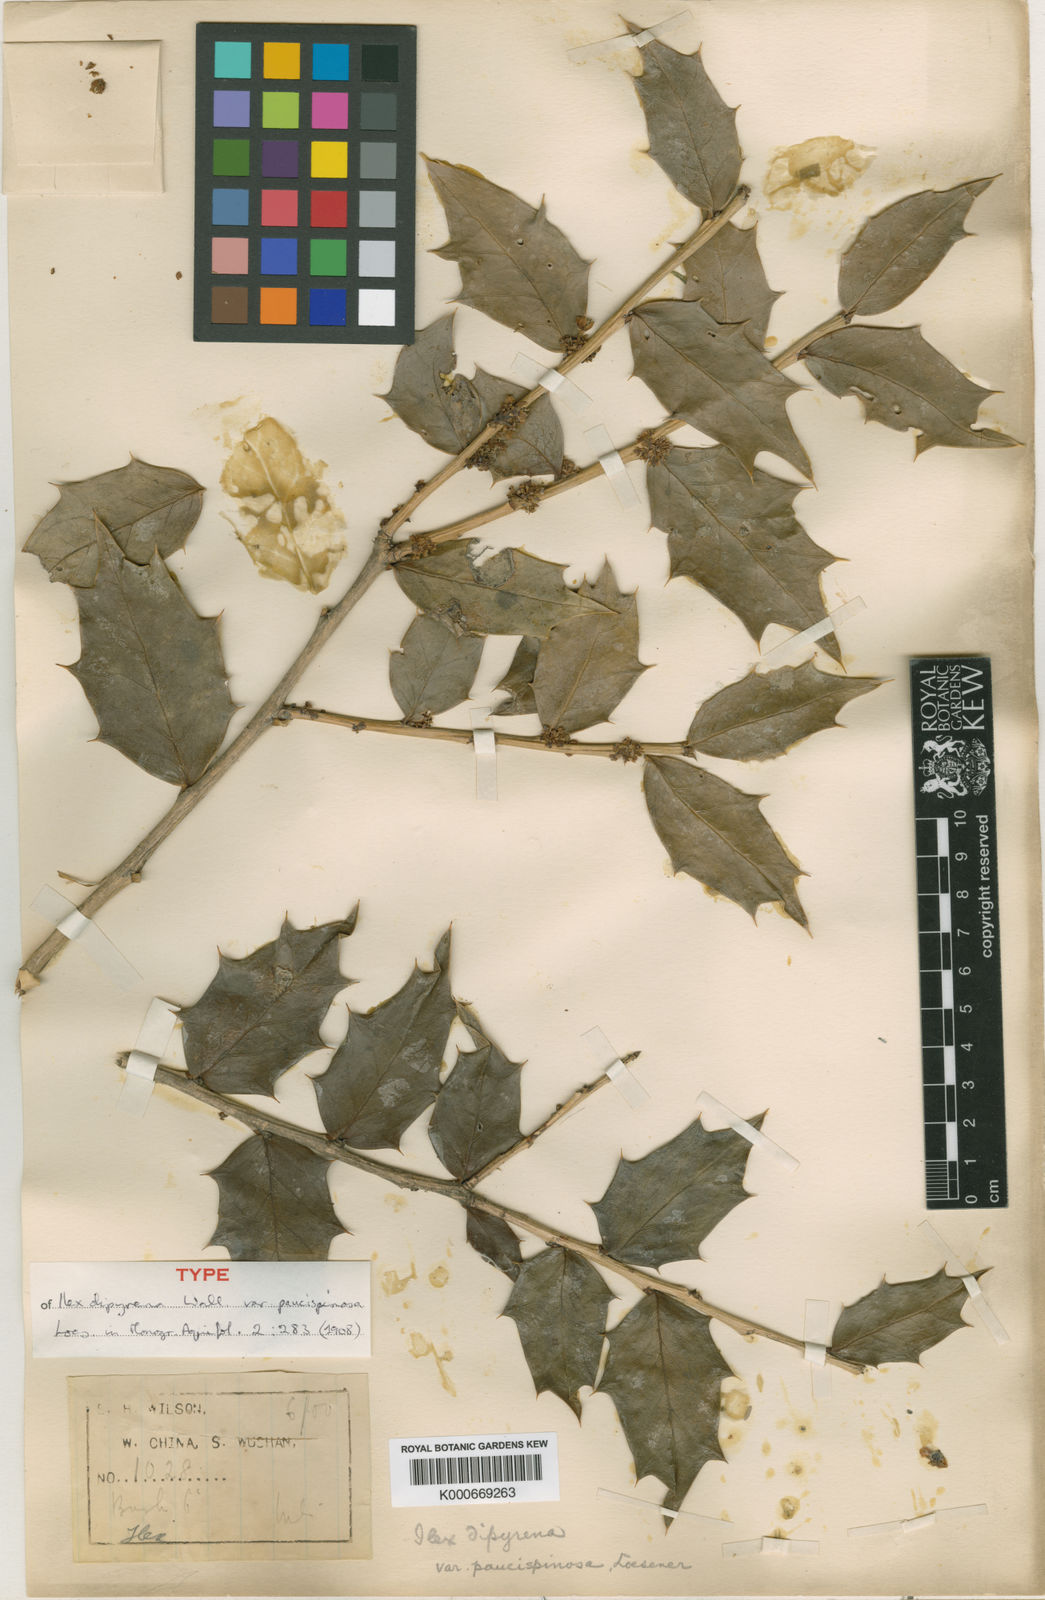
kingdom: Plantae
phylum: Tracheophyta
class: Magnoliopsida
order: Aquifoliales
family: Aquifoliaceae
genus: Ilex
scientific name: Ilex dipyrena
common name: Himalayan holly
